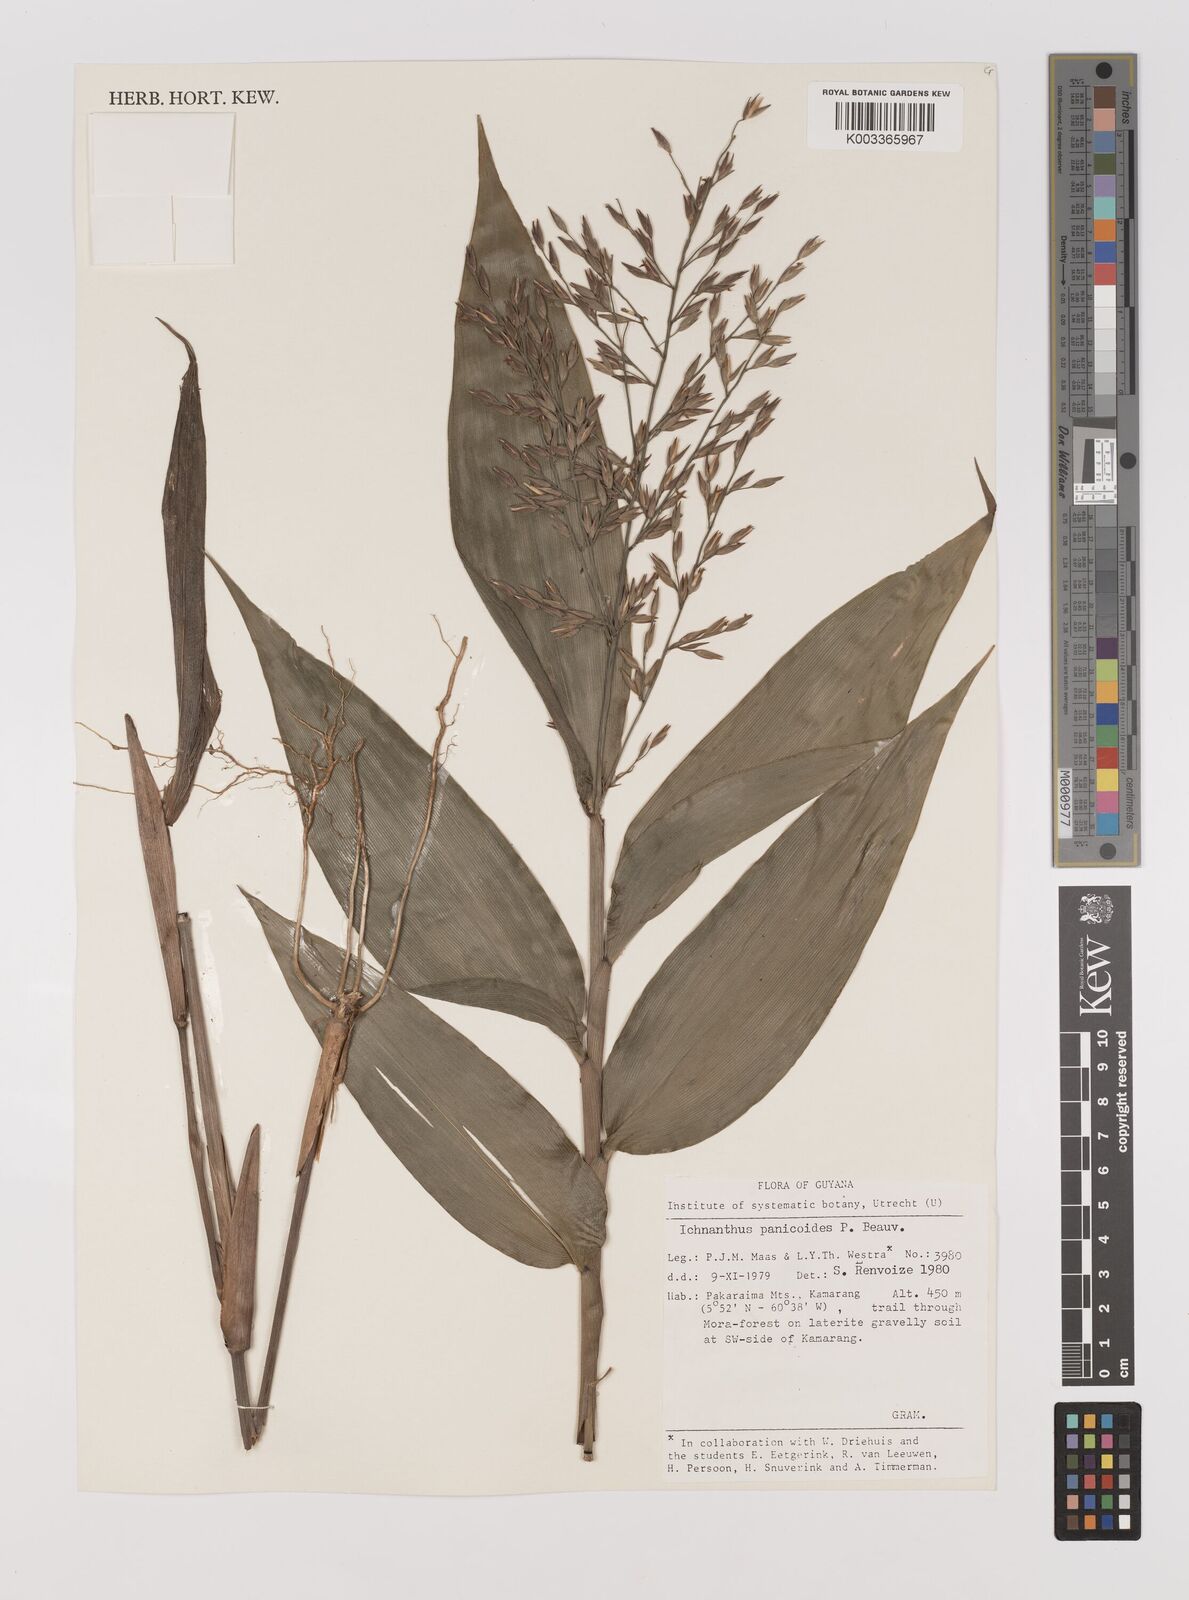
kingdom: Plantae
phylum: Tracheophyta
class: Liliopsida
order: Poales
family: Poaceae
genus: Ichnanthus
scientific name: Ichnanthus panicoides
